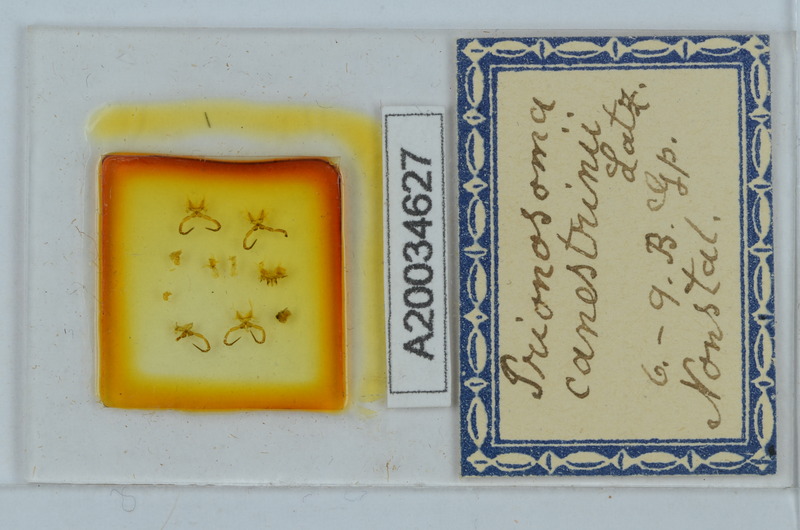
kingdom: Animalia
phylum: Arthropoda
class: Diplopoda
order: Chordeumatida
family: Craspedosomatidae
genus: Prionosoma
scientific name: Prionosoma canestrinii
